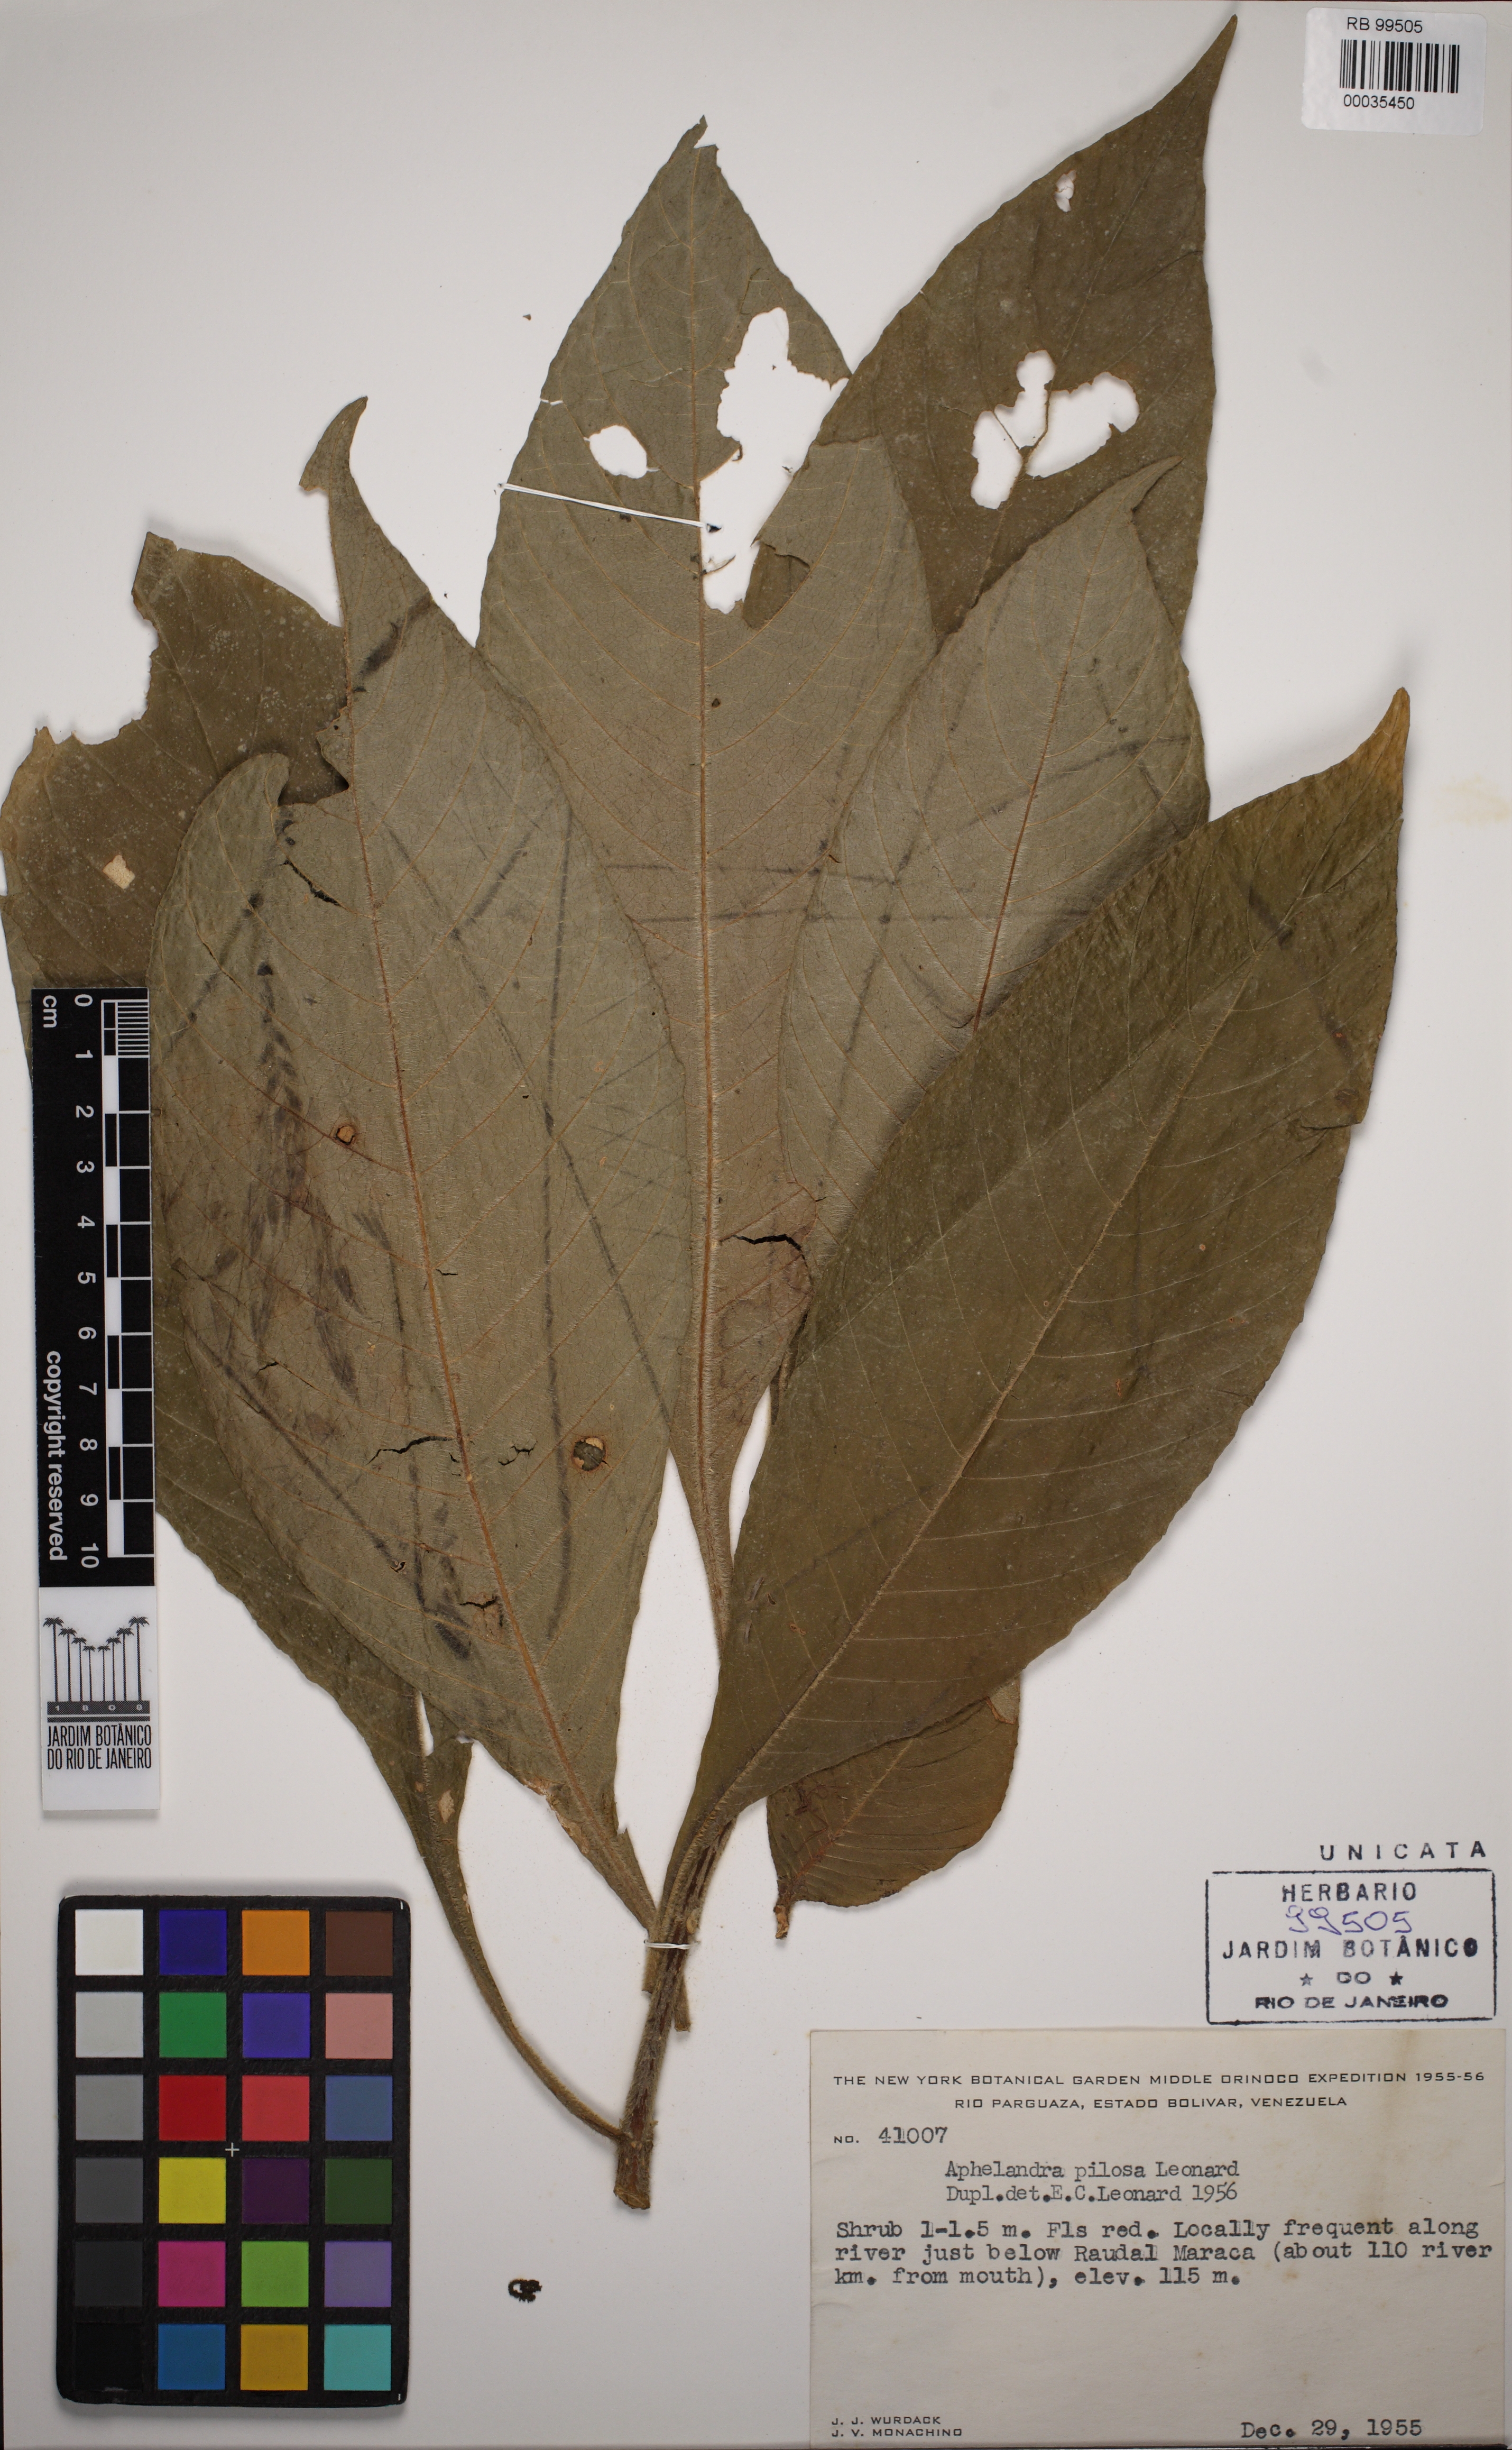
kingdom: Plantae
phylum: Tracheophyta
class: Magnoliopsida
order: Lamiales
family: Acanthaceae
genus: Aphelandra
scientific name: Aphelandra pilosa
